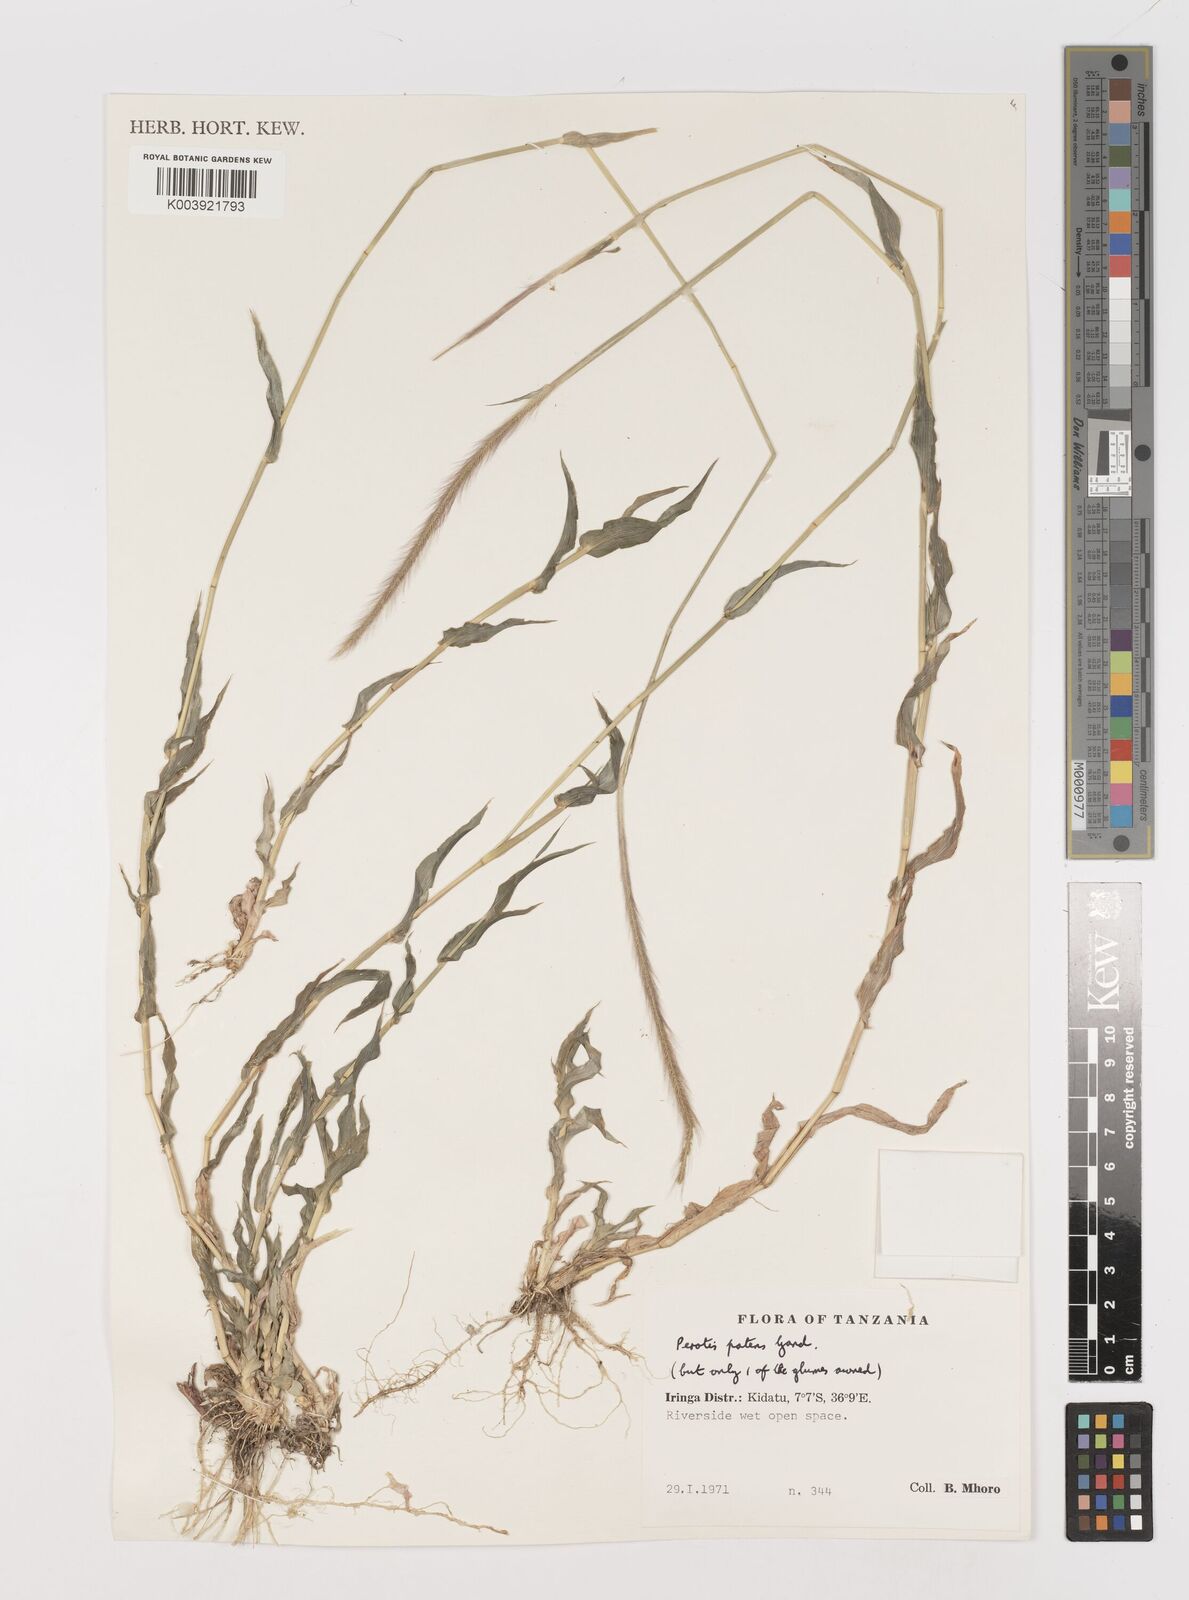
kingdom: Plantae
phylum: Tracheophyta
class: Liliopsida
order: Poales
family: Poaceae
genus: Perotis
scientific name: Perotis patens
